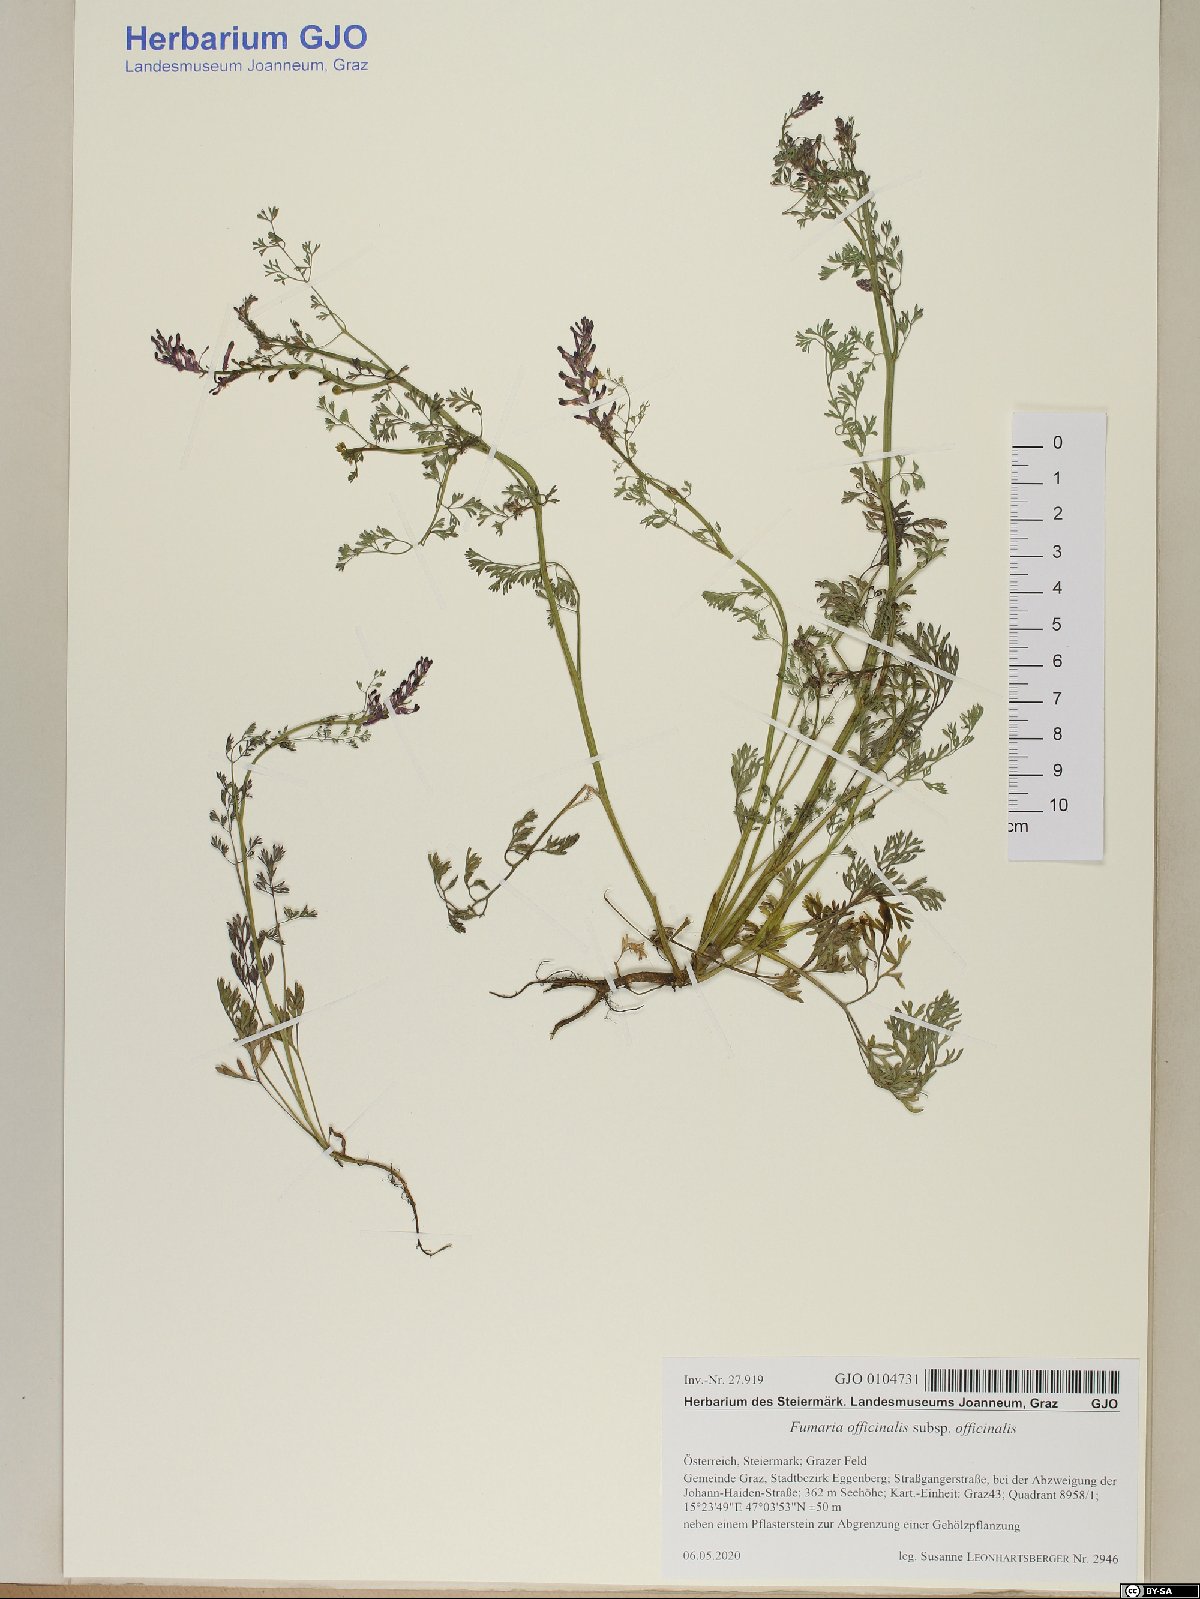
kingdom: Plantae
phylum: Tracheophyta
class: Magnoliopsida
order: Ranunculales
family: Papaveraceae
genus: Fumaria
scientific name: Fumaria officinalis
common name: Common fumitory
